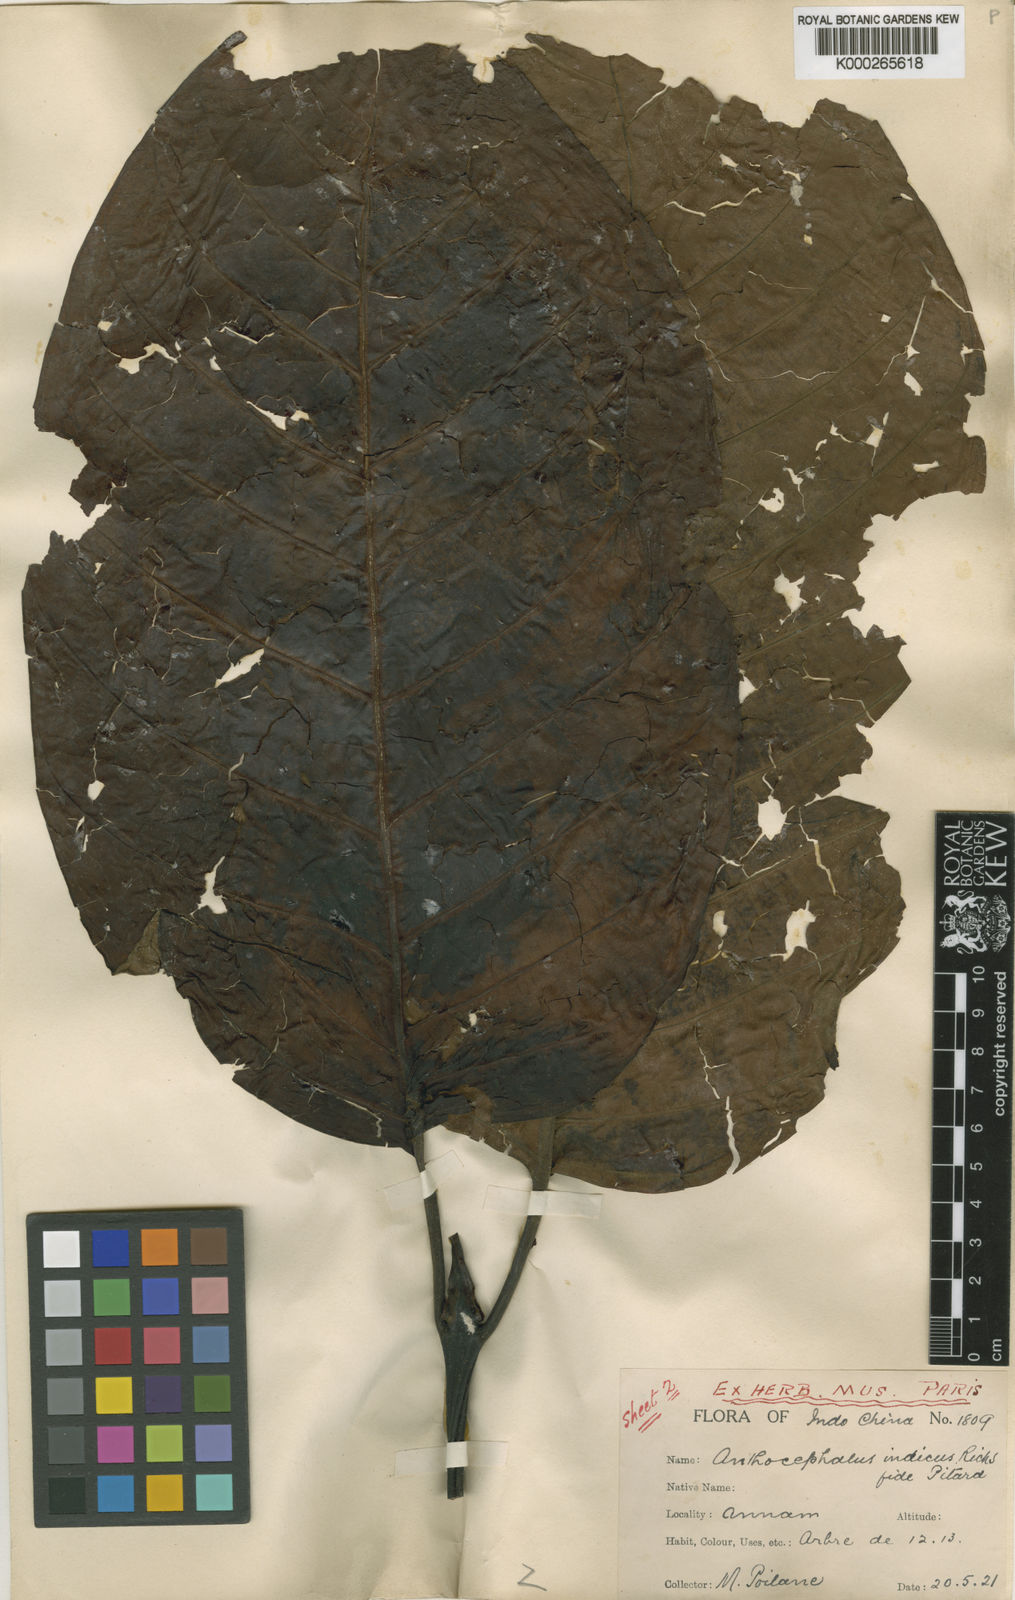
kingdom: Plantae
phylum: Tracheophyta
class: Magnoliopsida
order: Gentianales
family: Rubiaceae
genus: Neolamarckia
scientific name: Neolamarckia cadamba
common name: Leichhardt-pine
